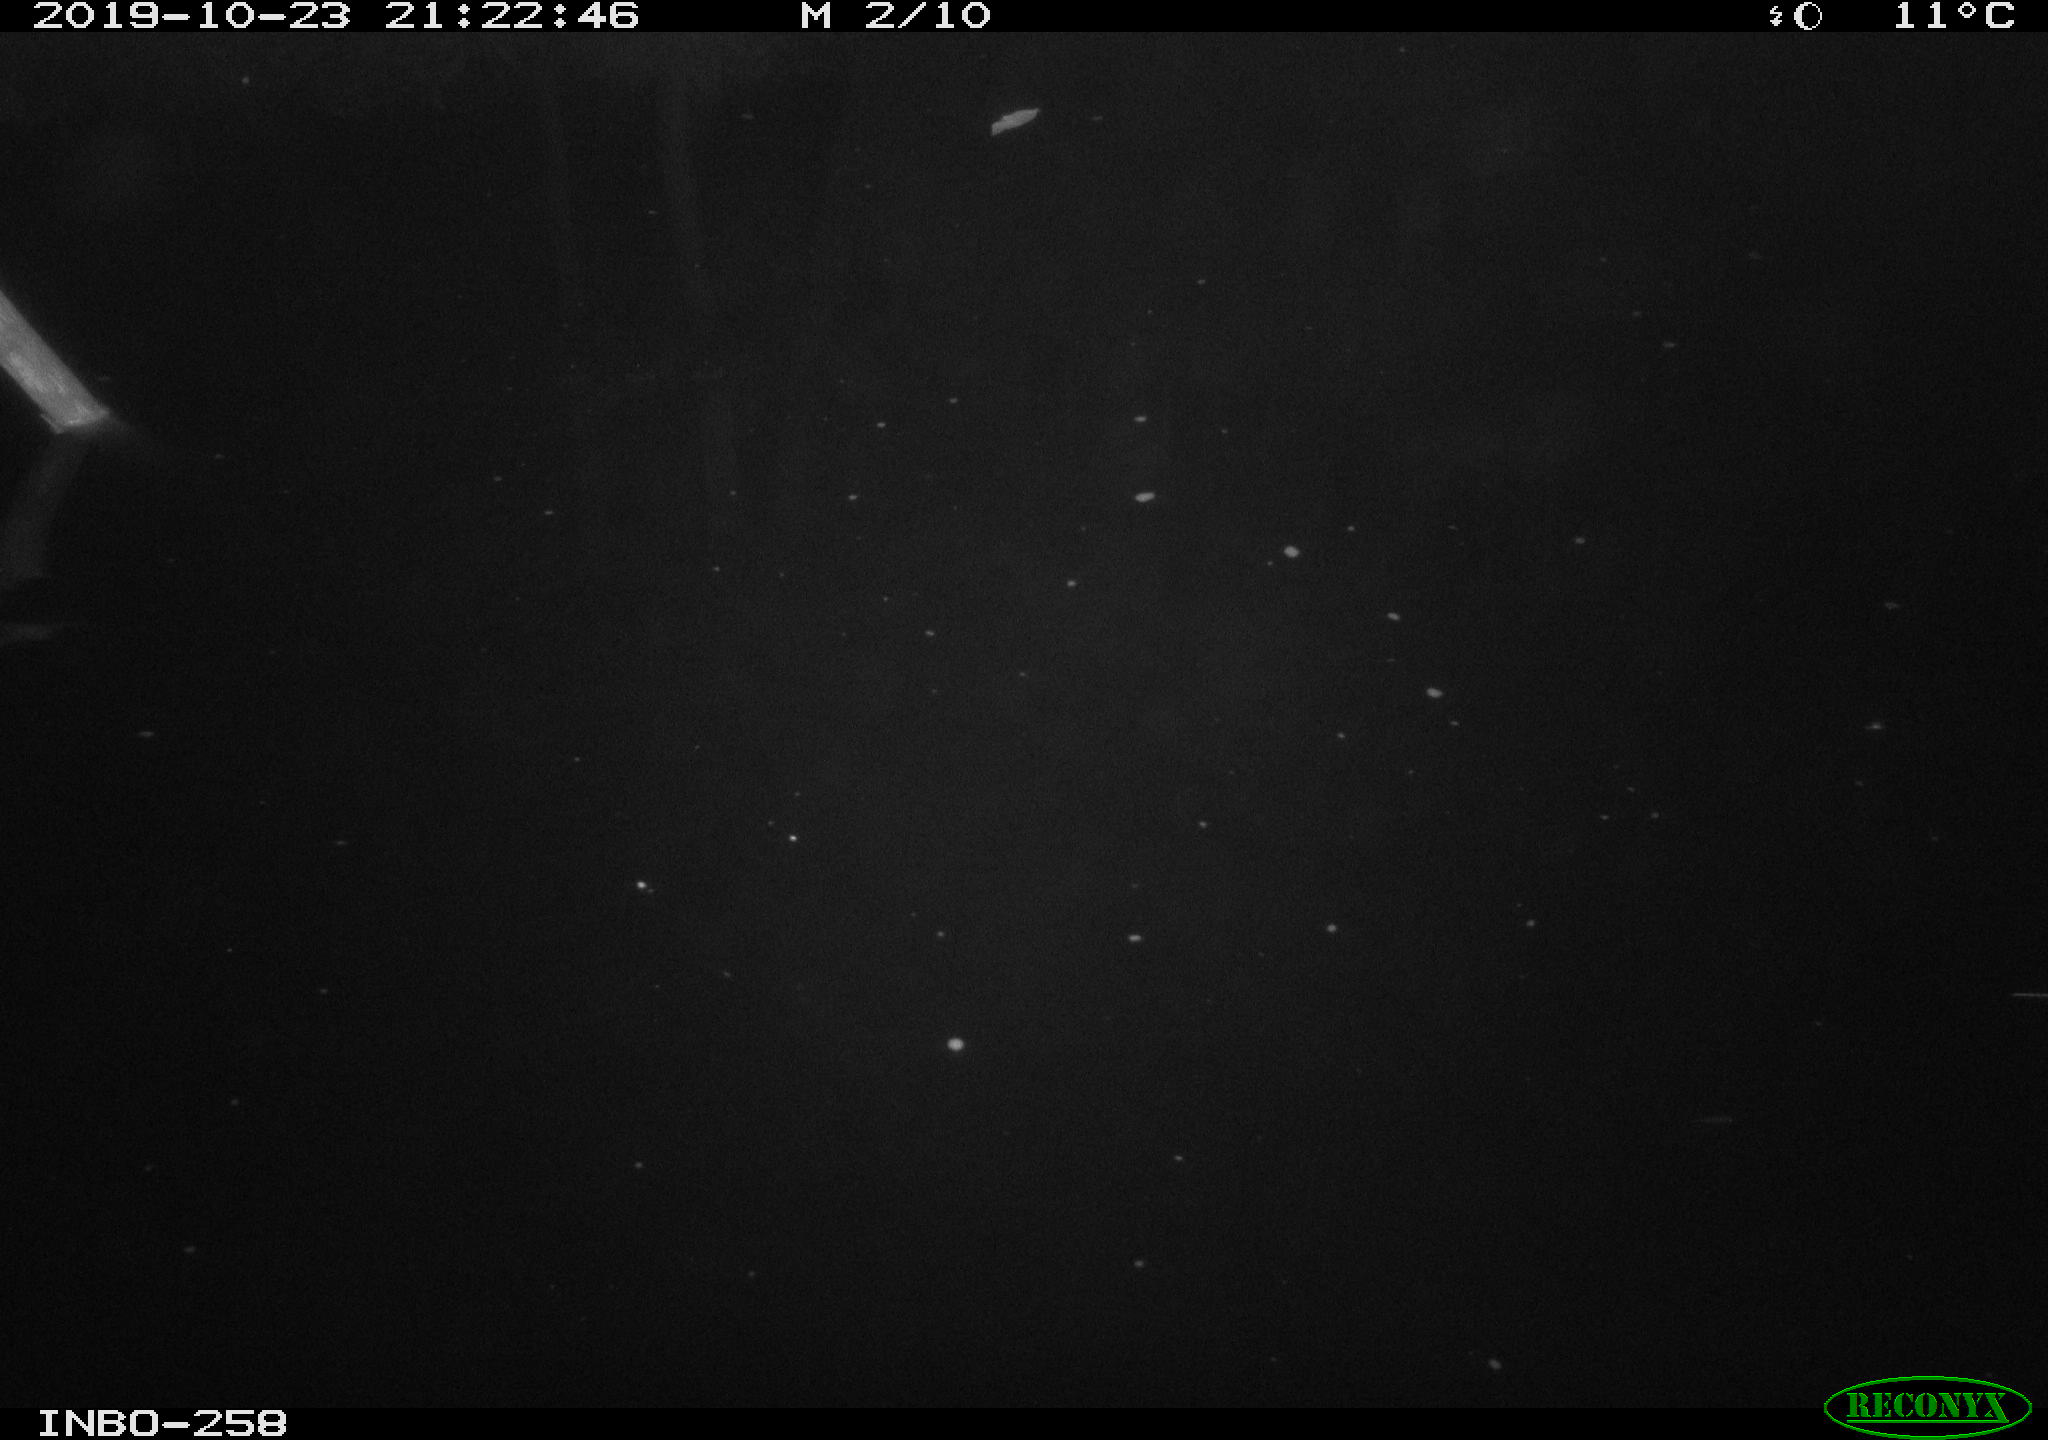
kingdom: Animalia
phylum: Chordata
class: Mammalia
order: Rodentia
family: Muridae
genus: Rattus
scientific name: Rattus norvegicus
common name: Brown rat
